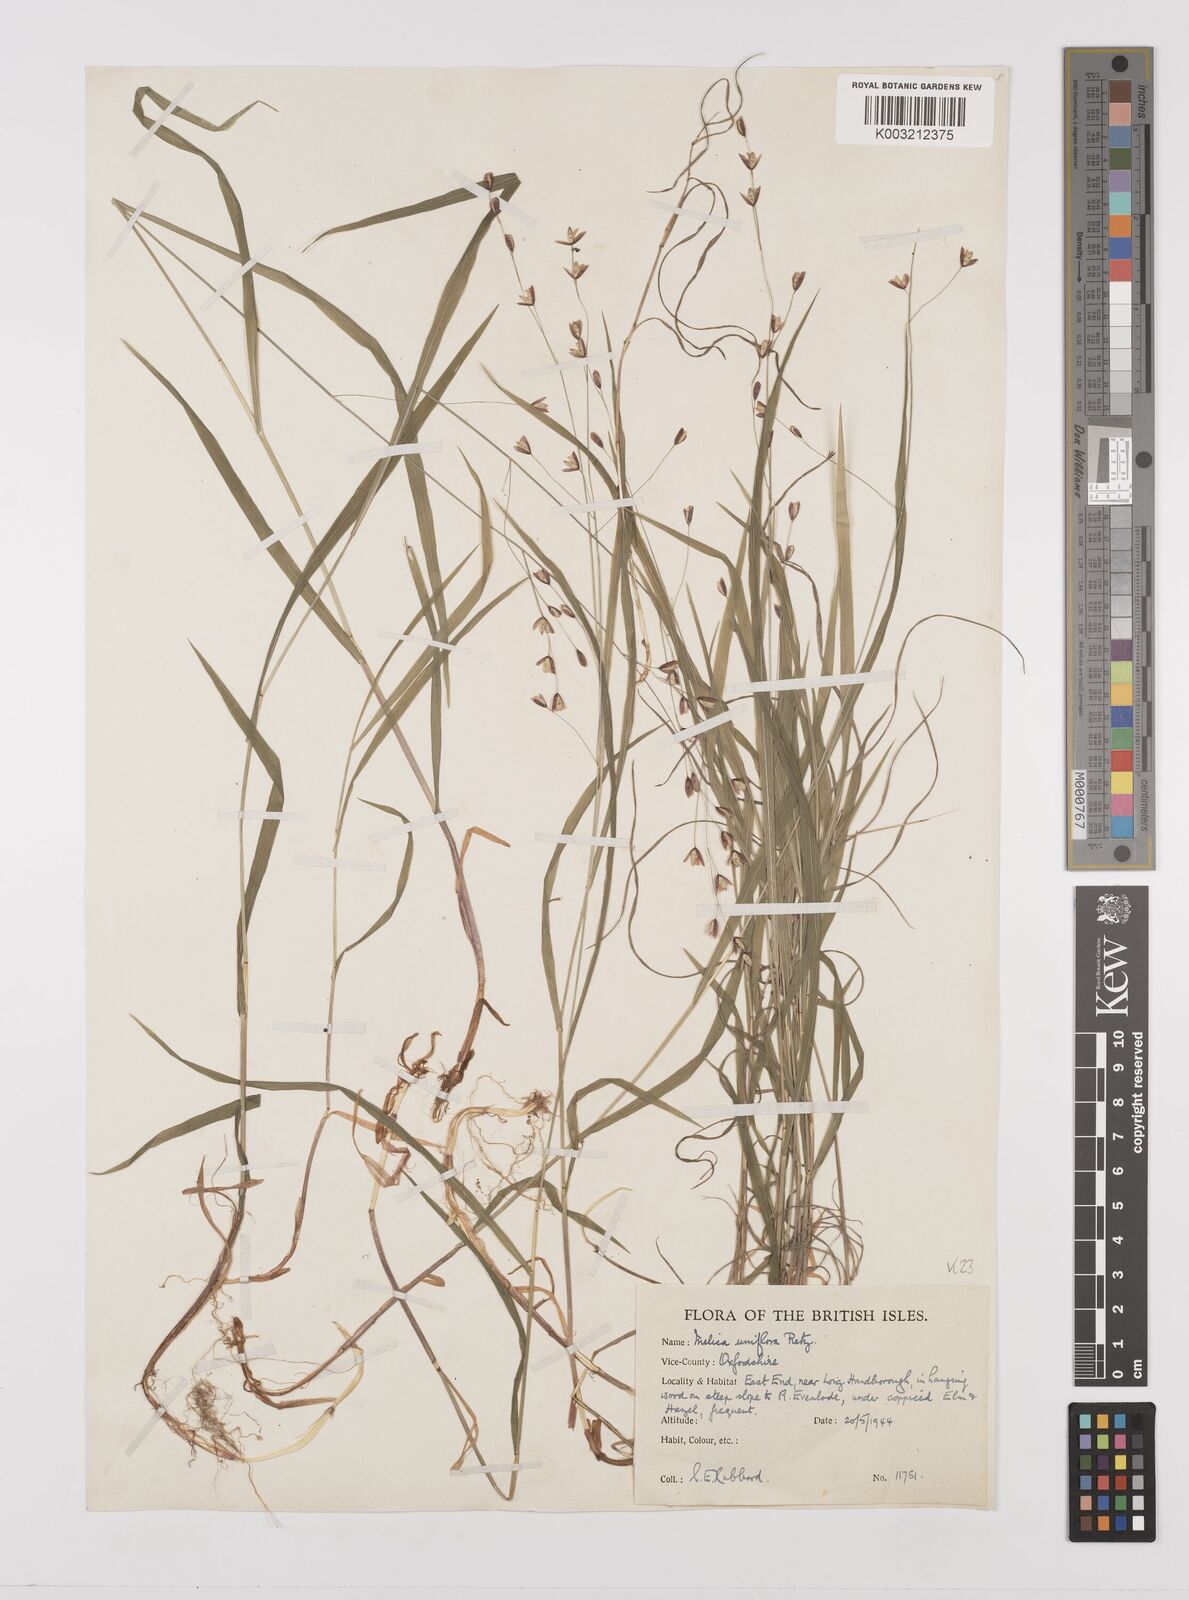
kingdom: Plantae
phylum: Tracheophyta
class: Liliopsida
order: Poales
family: Poaceae
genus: Melica
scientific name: Melica uniflora
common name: Wood melick
